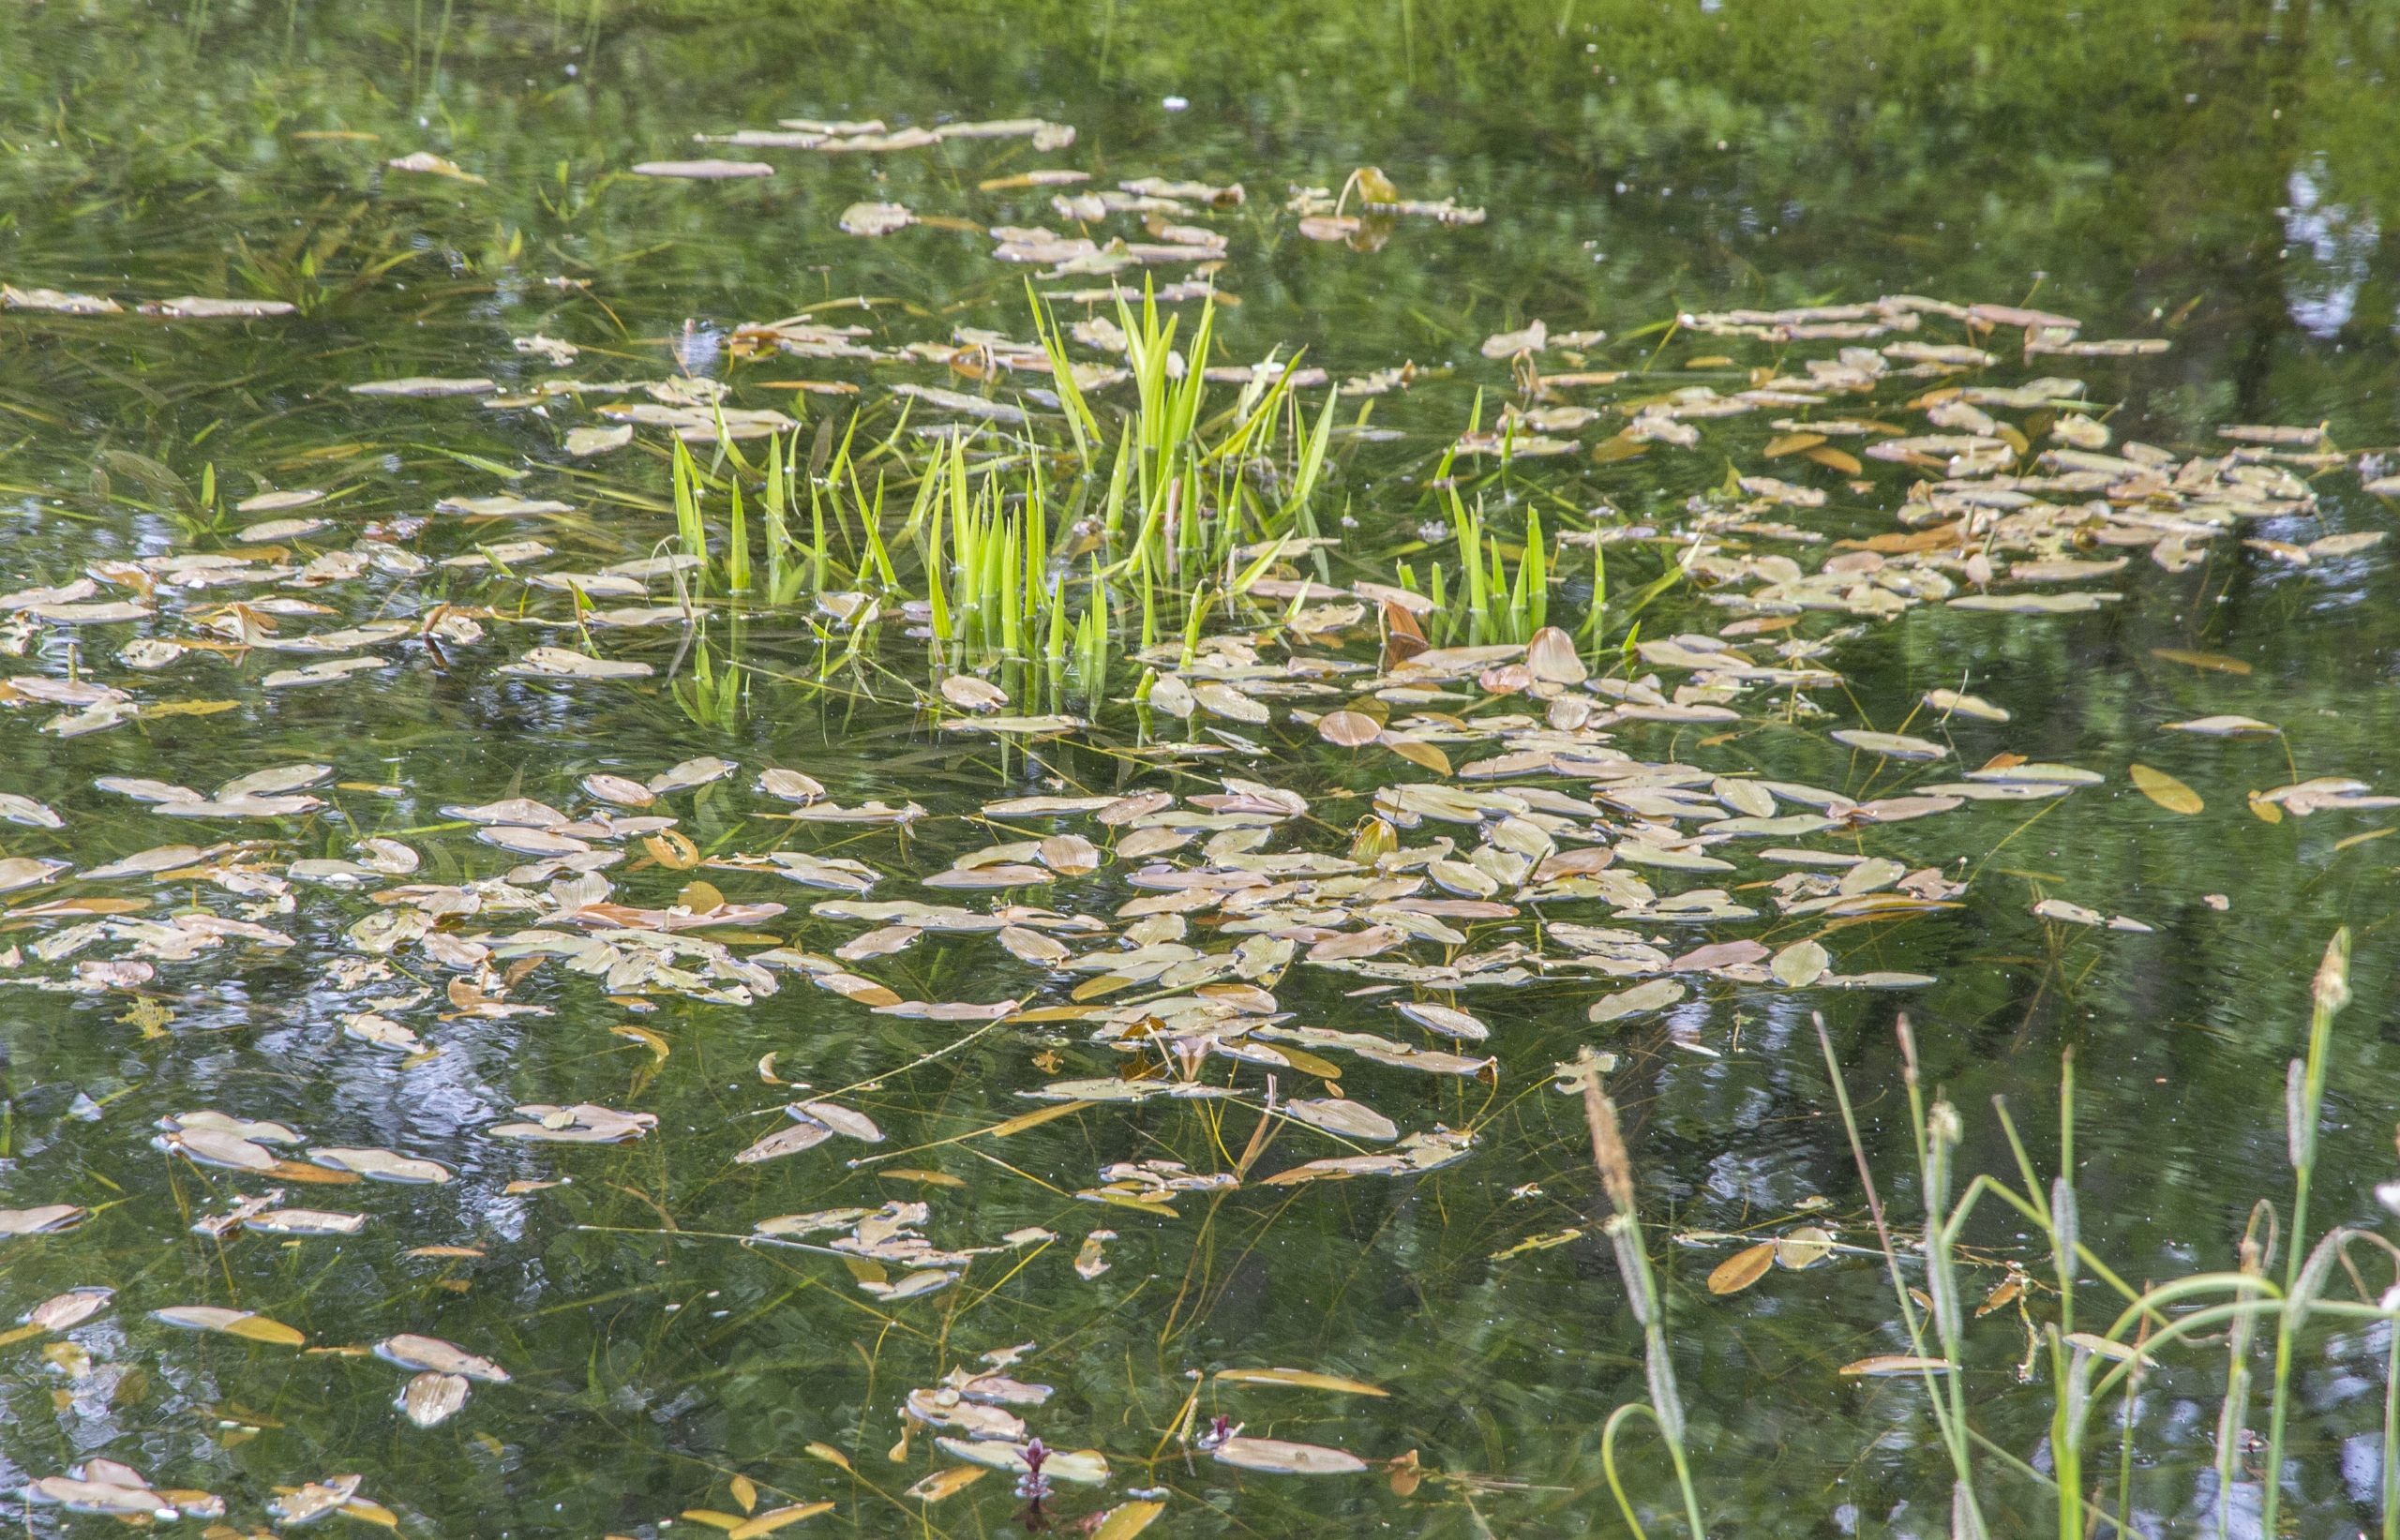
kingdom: Plantae
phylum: Tracheophyta
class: Liliopsida
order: Alismatales
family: Potamogetonaceae
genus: Potamogeton
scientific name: Potamogeton natans
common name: Svømmende vandaks
